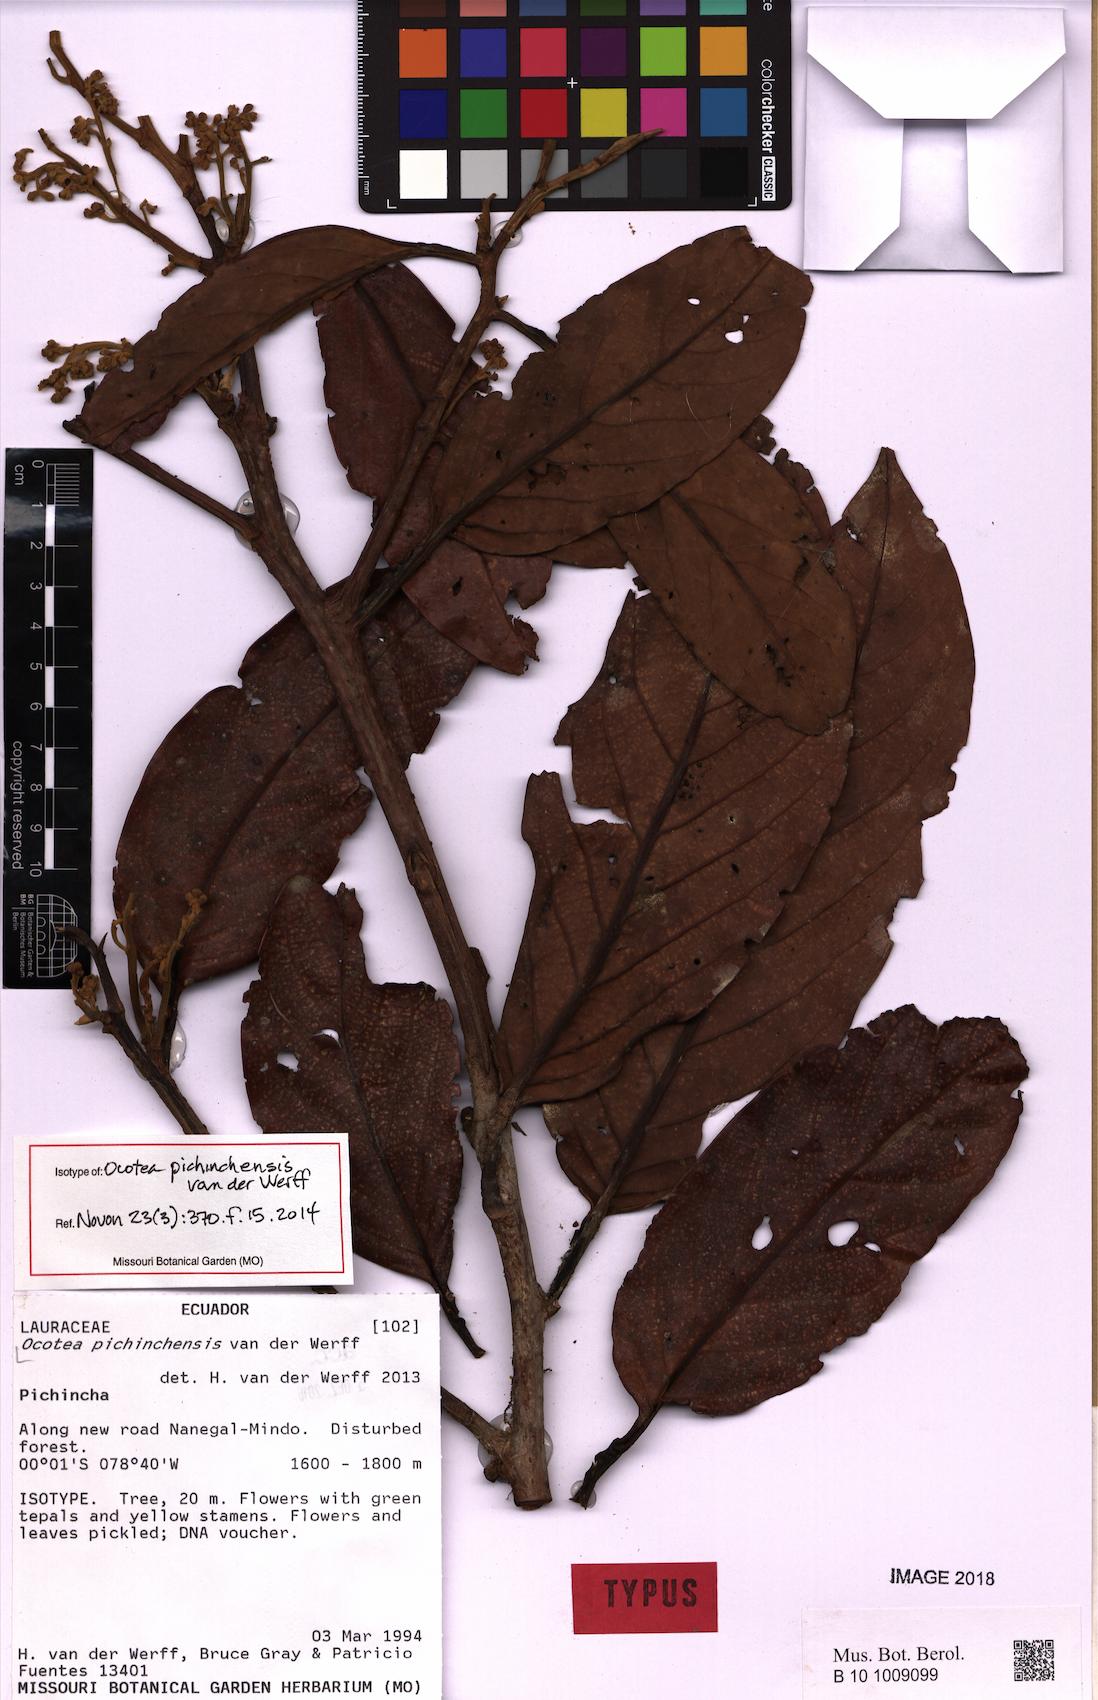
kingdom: Plantae
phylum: Tracheophyta
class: Magnoliopsida
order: Laurales
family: Lauraceae
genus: Ocotea
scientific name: Ocotea pichinchensis
